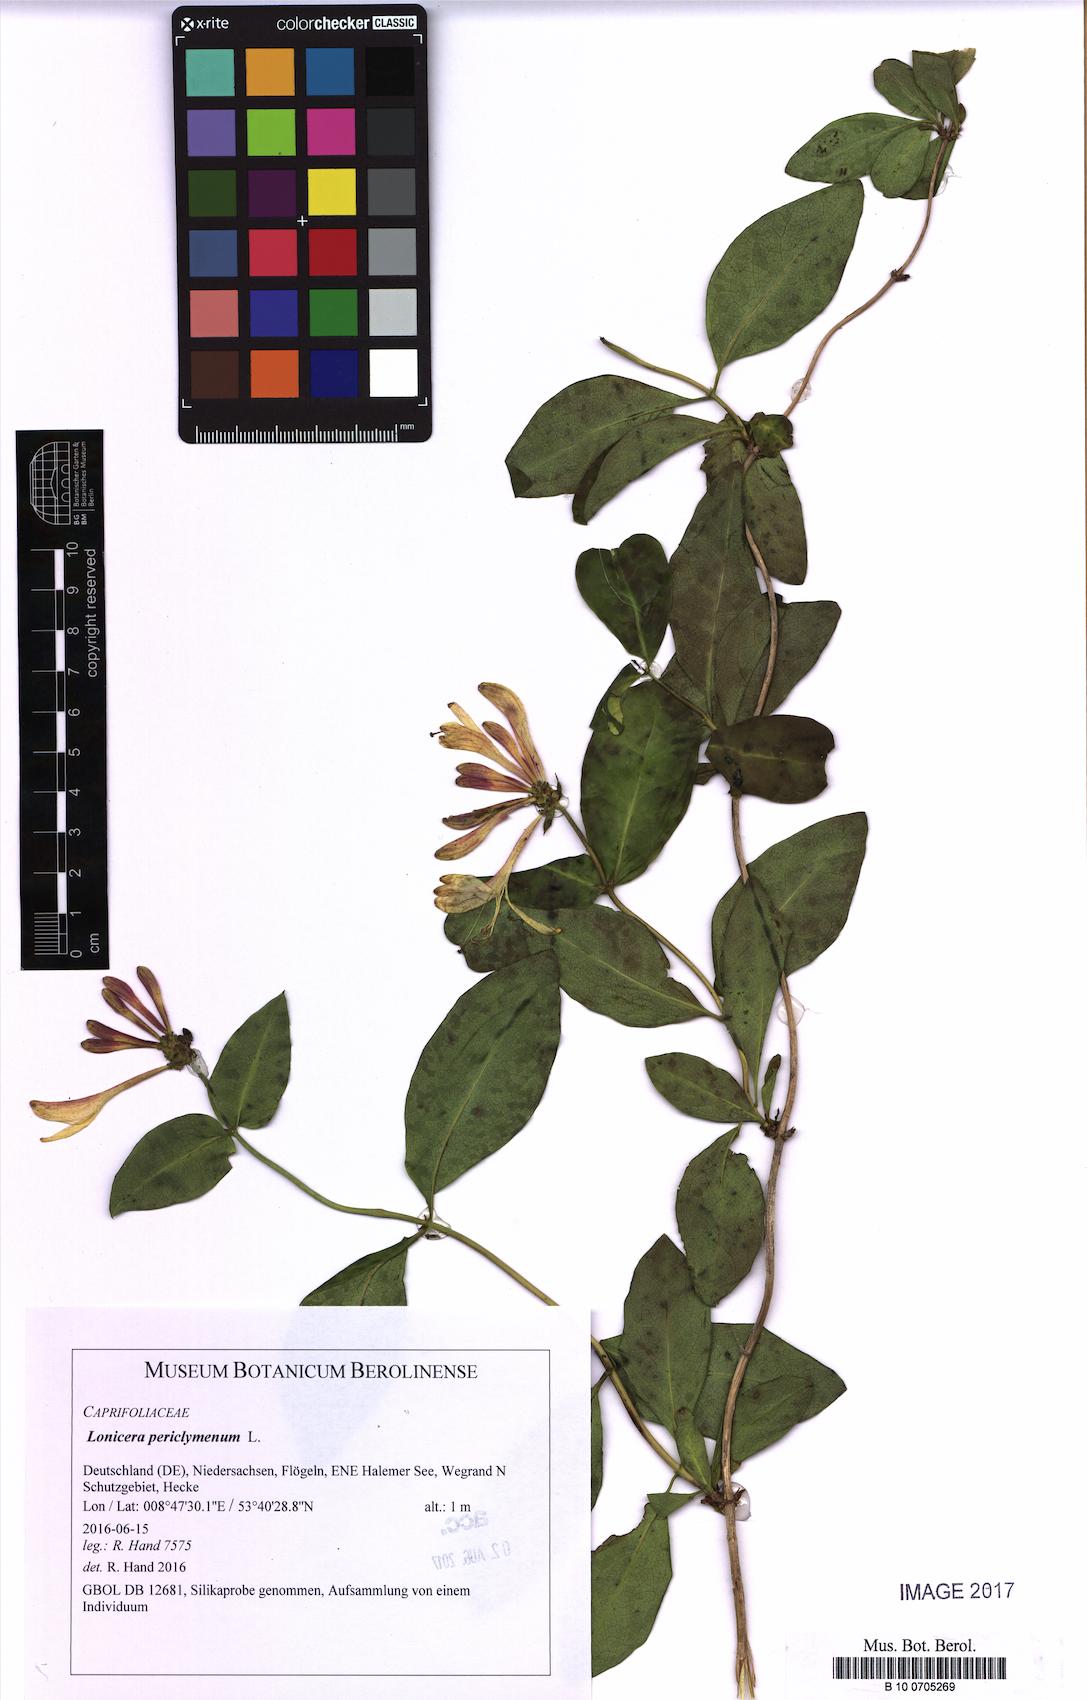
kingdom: Plantae
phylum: Tracheophyta
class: Magnoliopsida
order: Dipsacales
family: Caprifoliaceae
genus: Lonicera
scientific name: Lonicera periclymenum
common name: European honeysuckle
